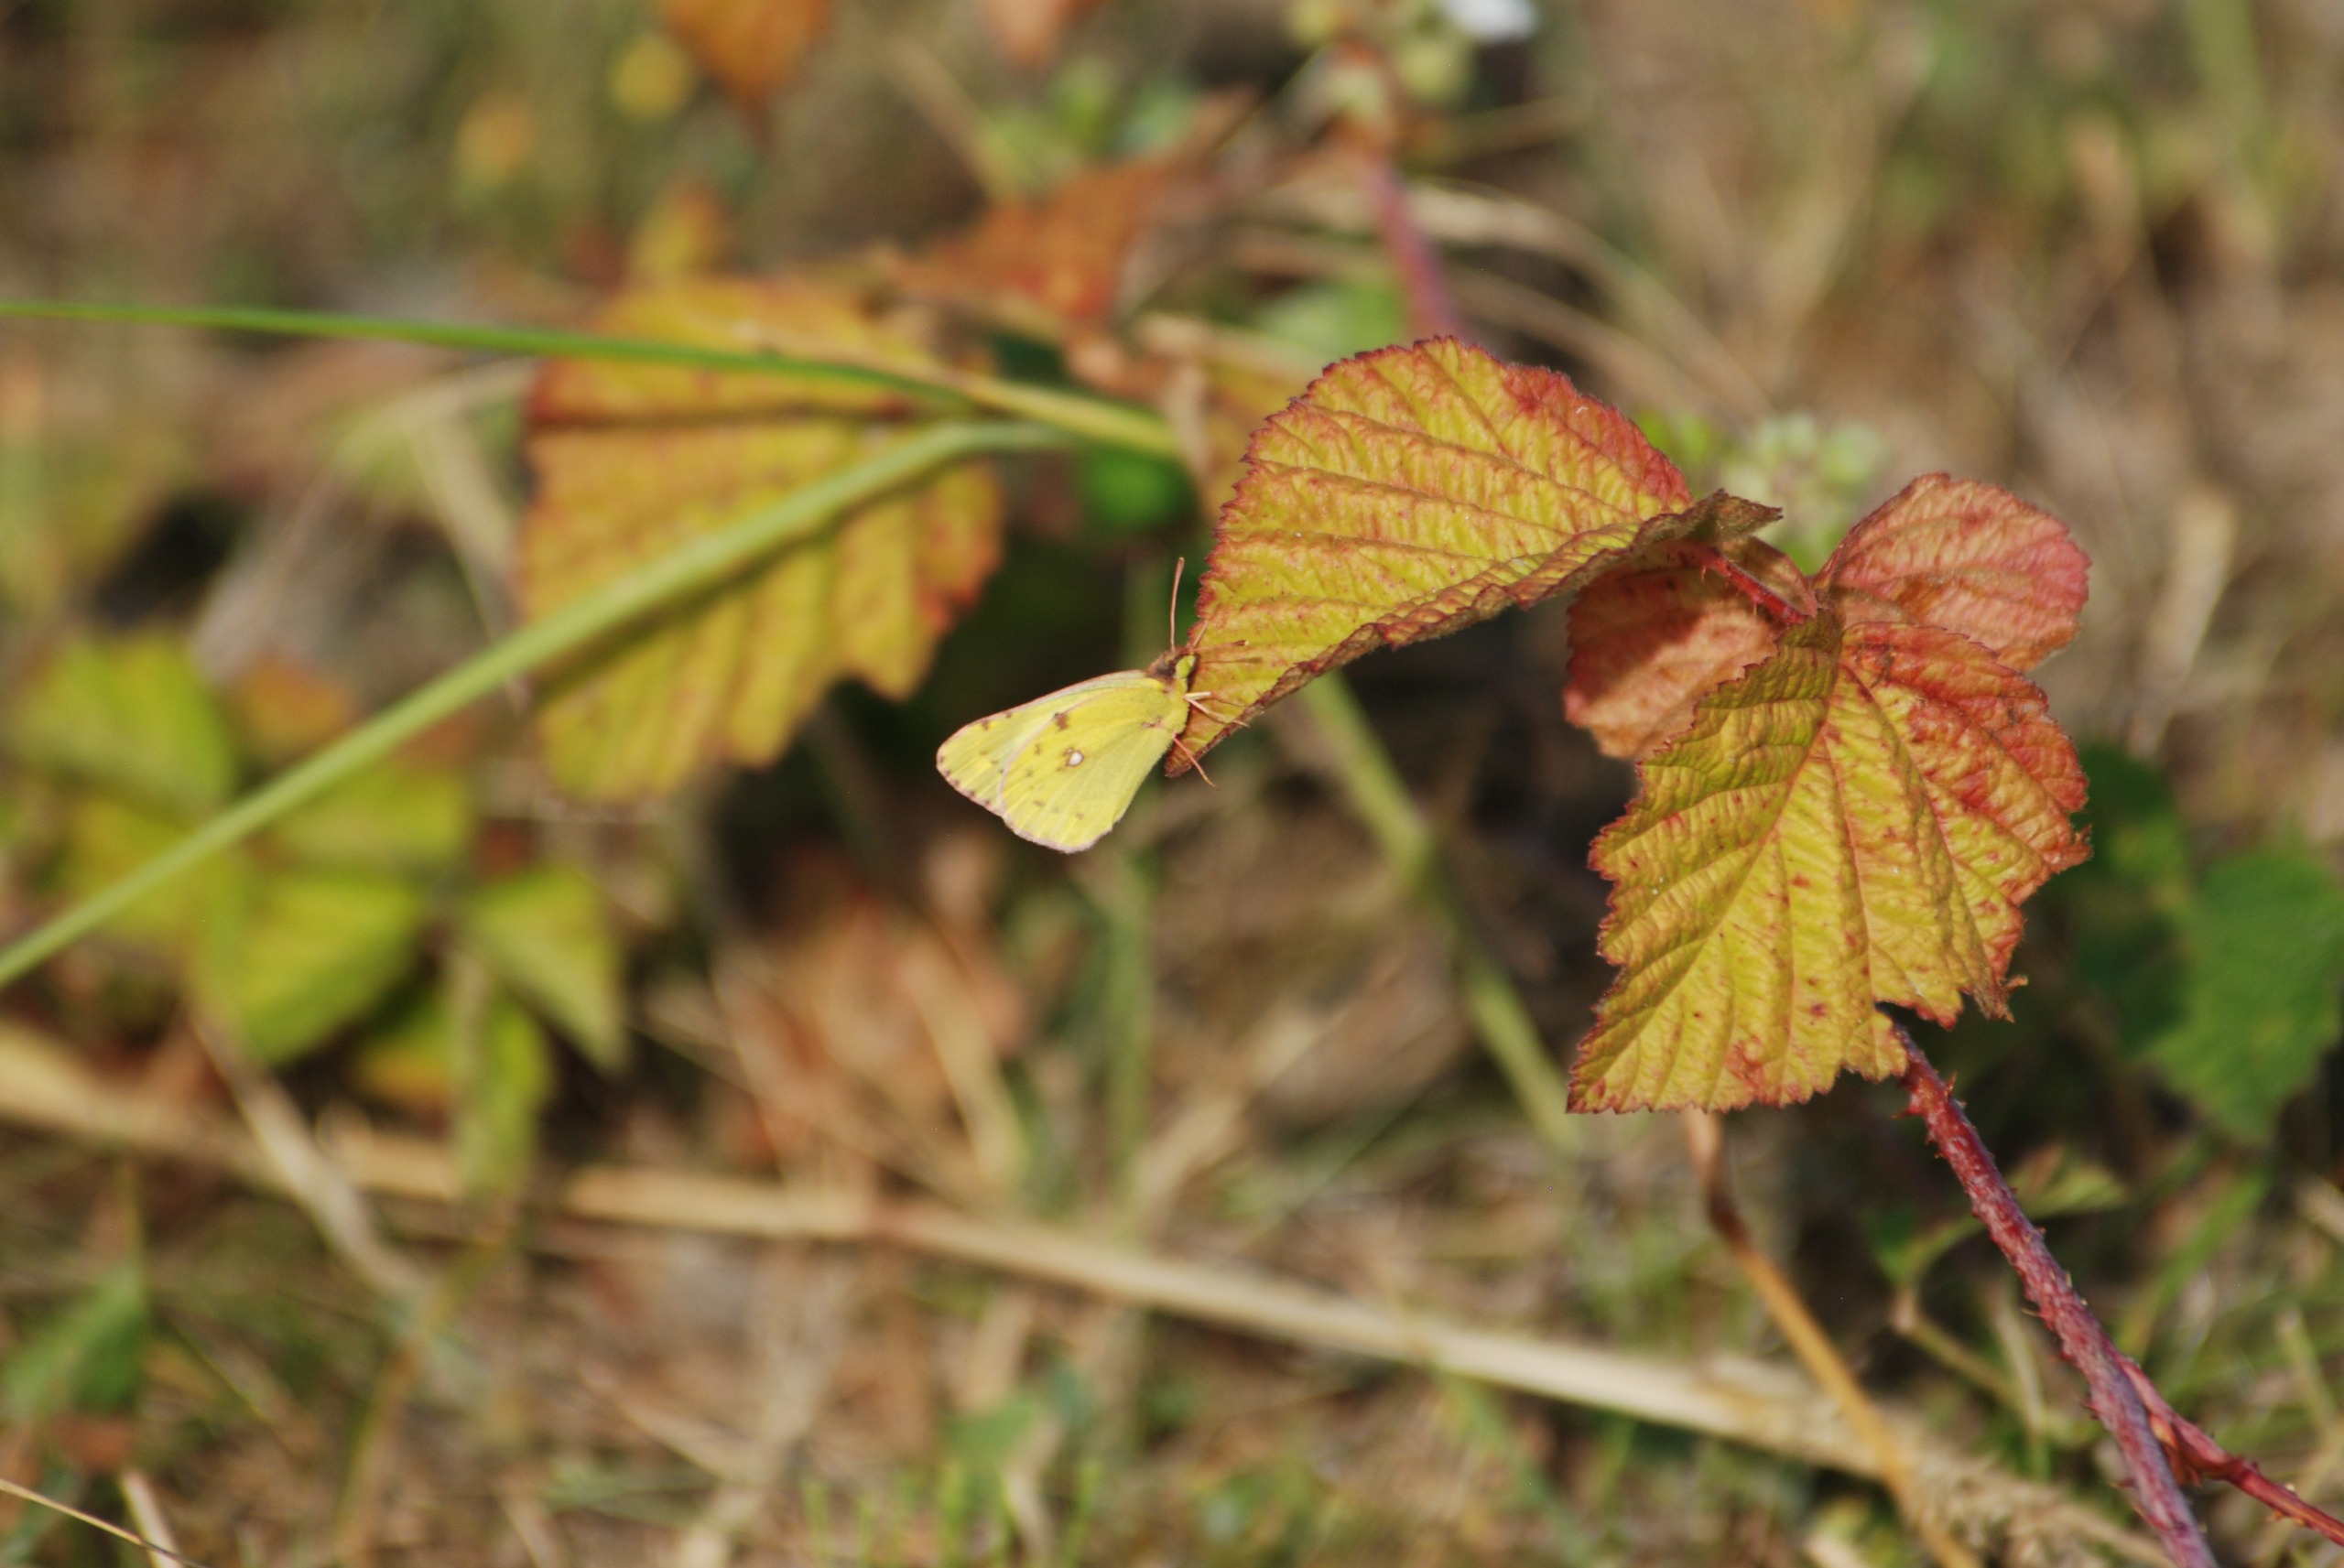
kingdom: Animalia
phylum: Arthropoda
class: Insecta
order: Lepidoptera
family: Pieridae
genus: Colias
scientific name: Colias hyale
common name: Gul høsommerfugl
